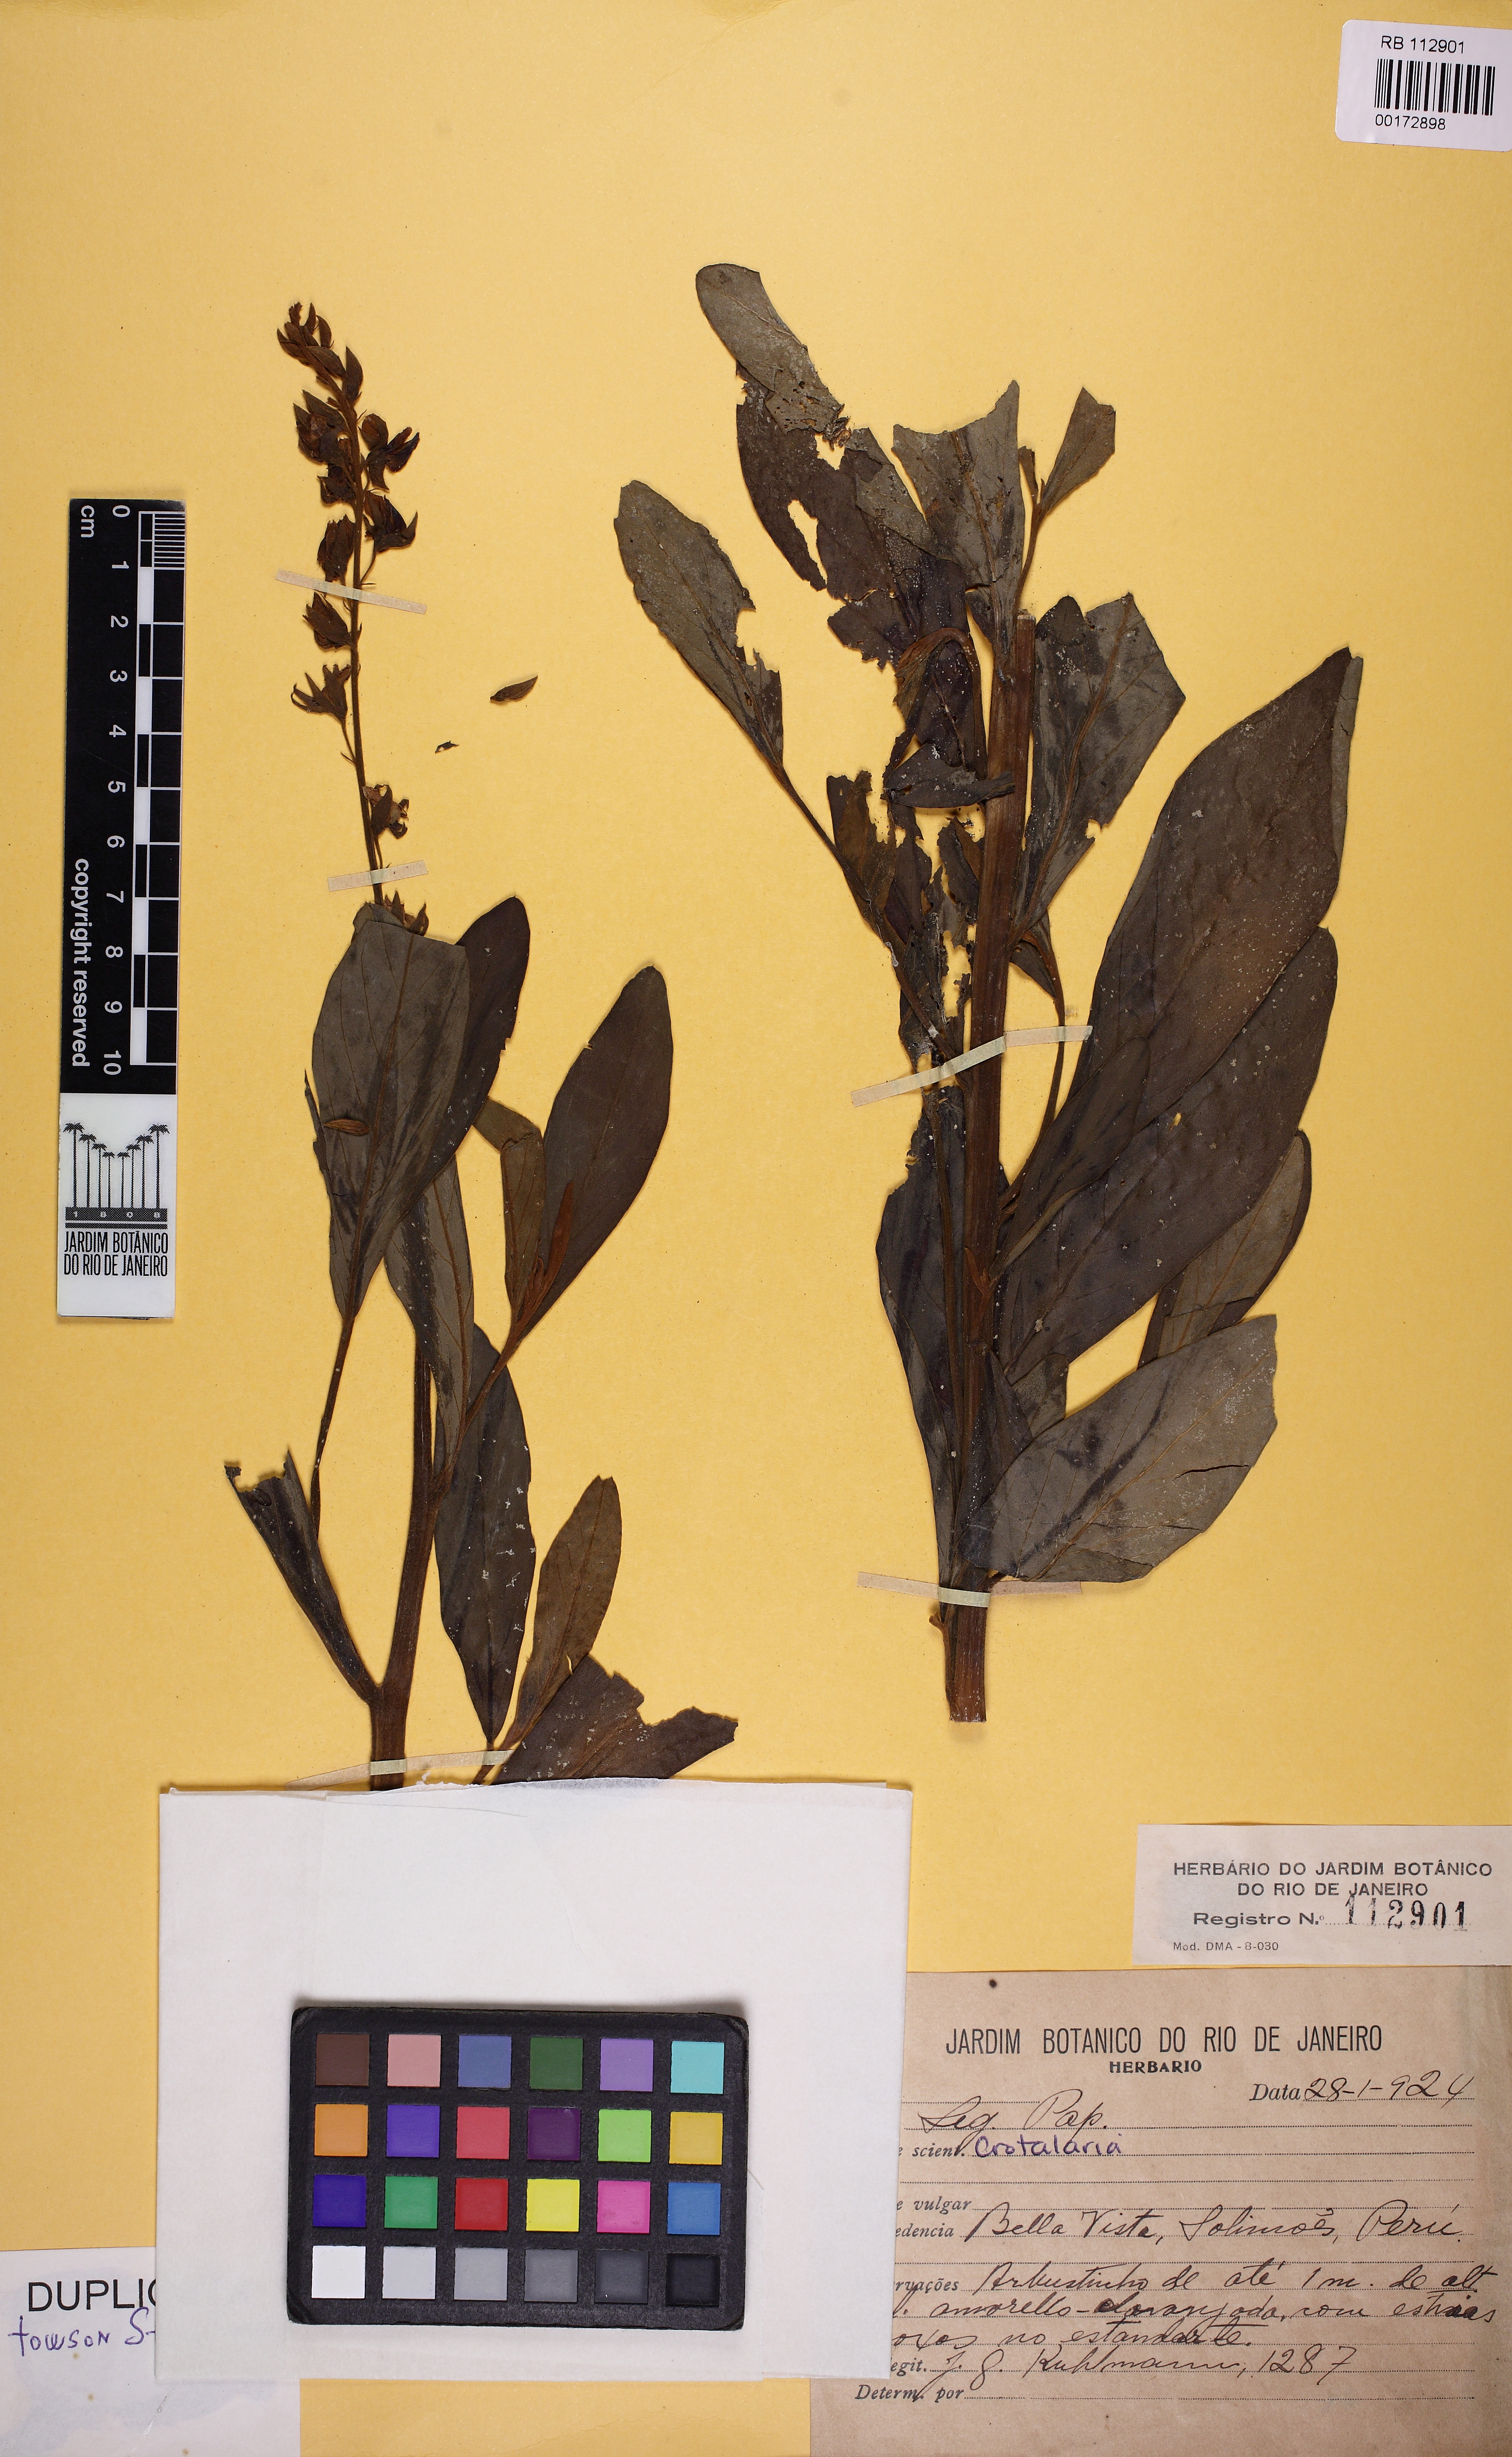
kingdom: Plantae
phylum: Tracheophyta
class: Magnoliopsida
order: Fabales
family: Fabaceae
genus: Crotalaria
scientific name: Crotalaria
